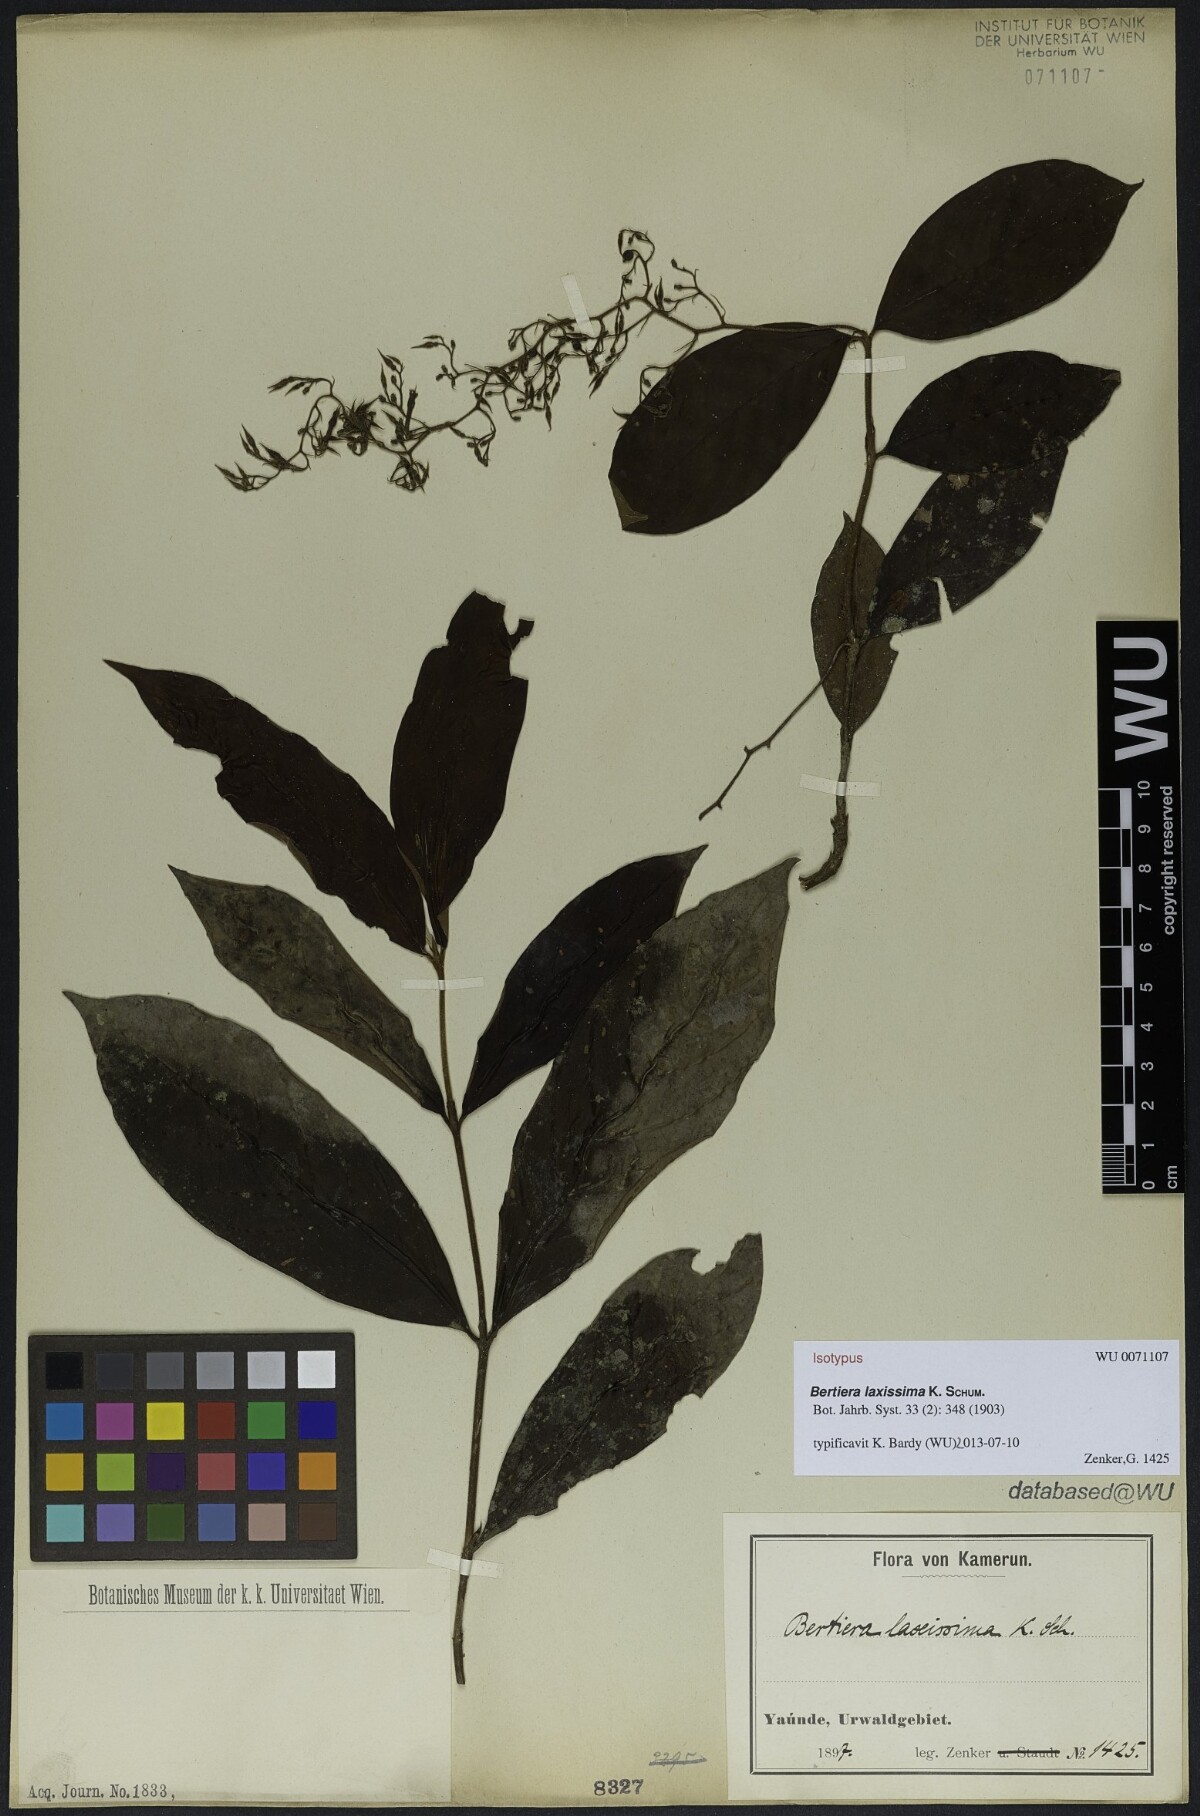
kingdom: Plantae
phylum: Tracheophyta
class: Magnoliopsida
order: Gentianales
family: Rubiaceae
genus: Bertiera
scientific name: Bertiera laxissima
